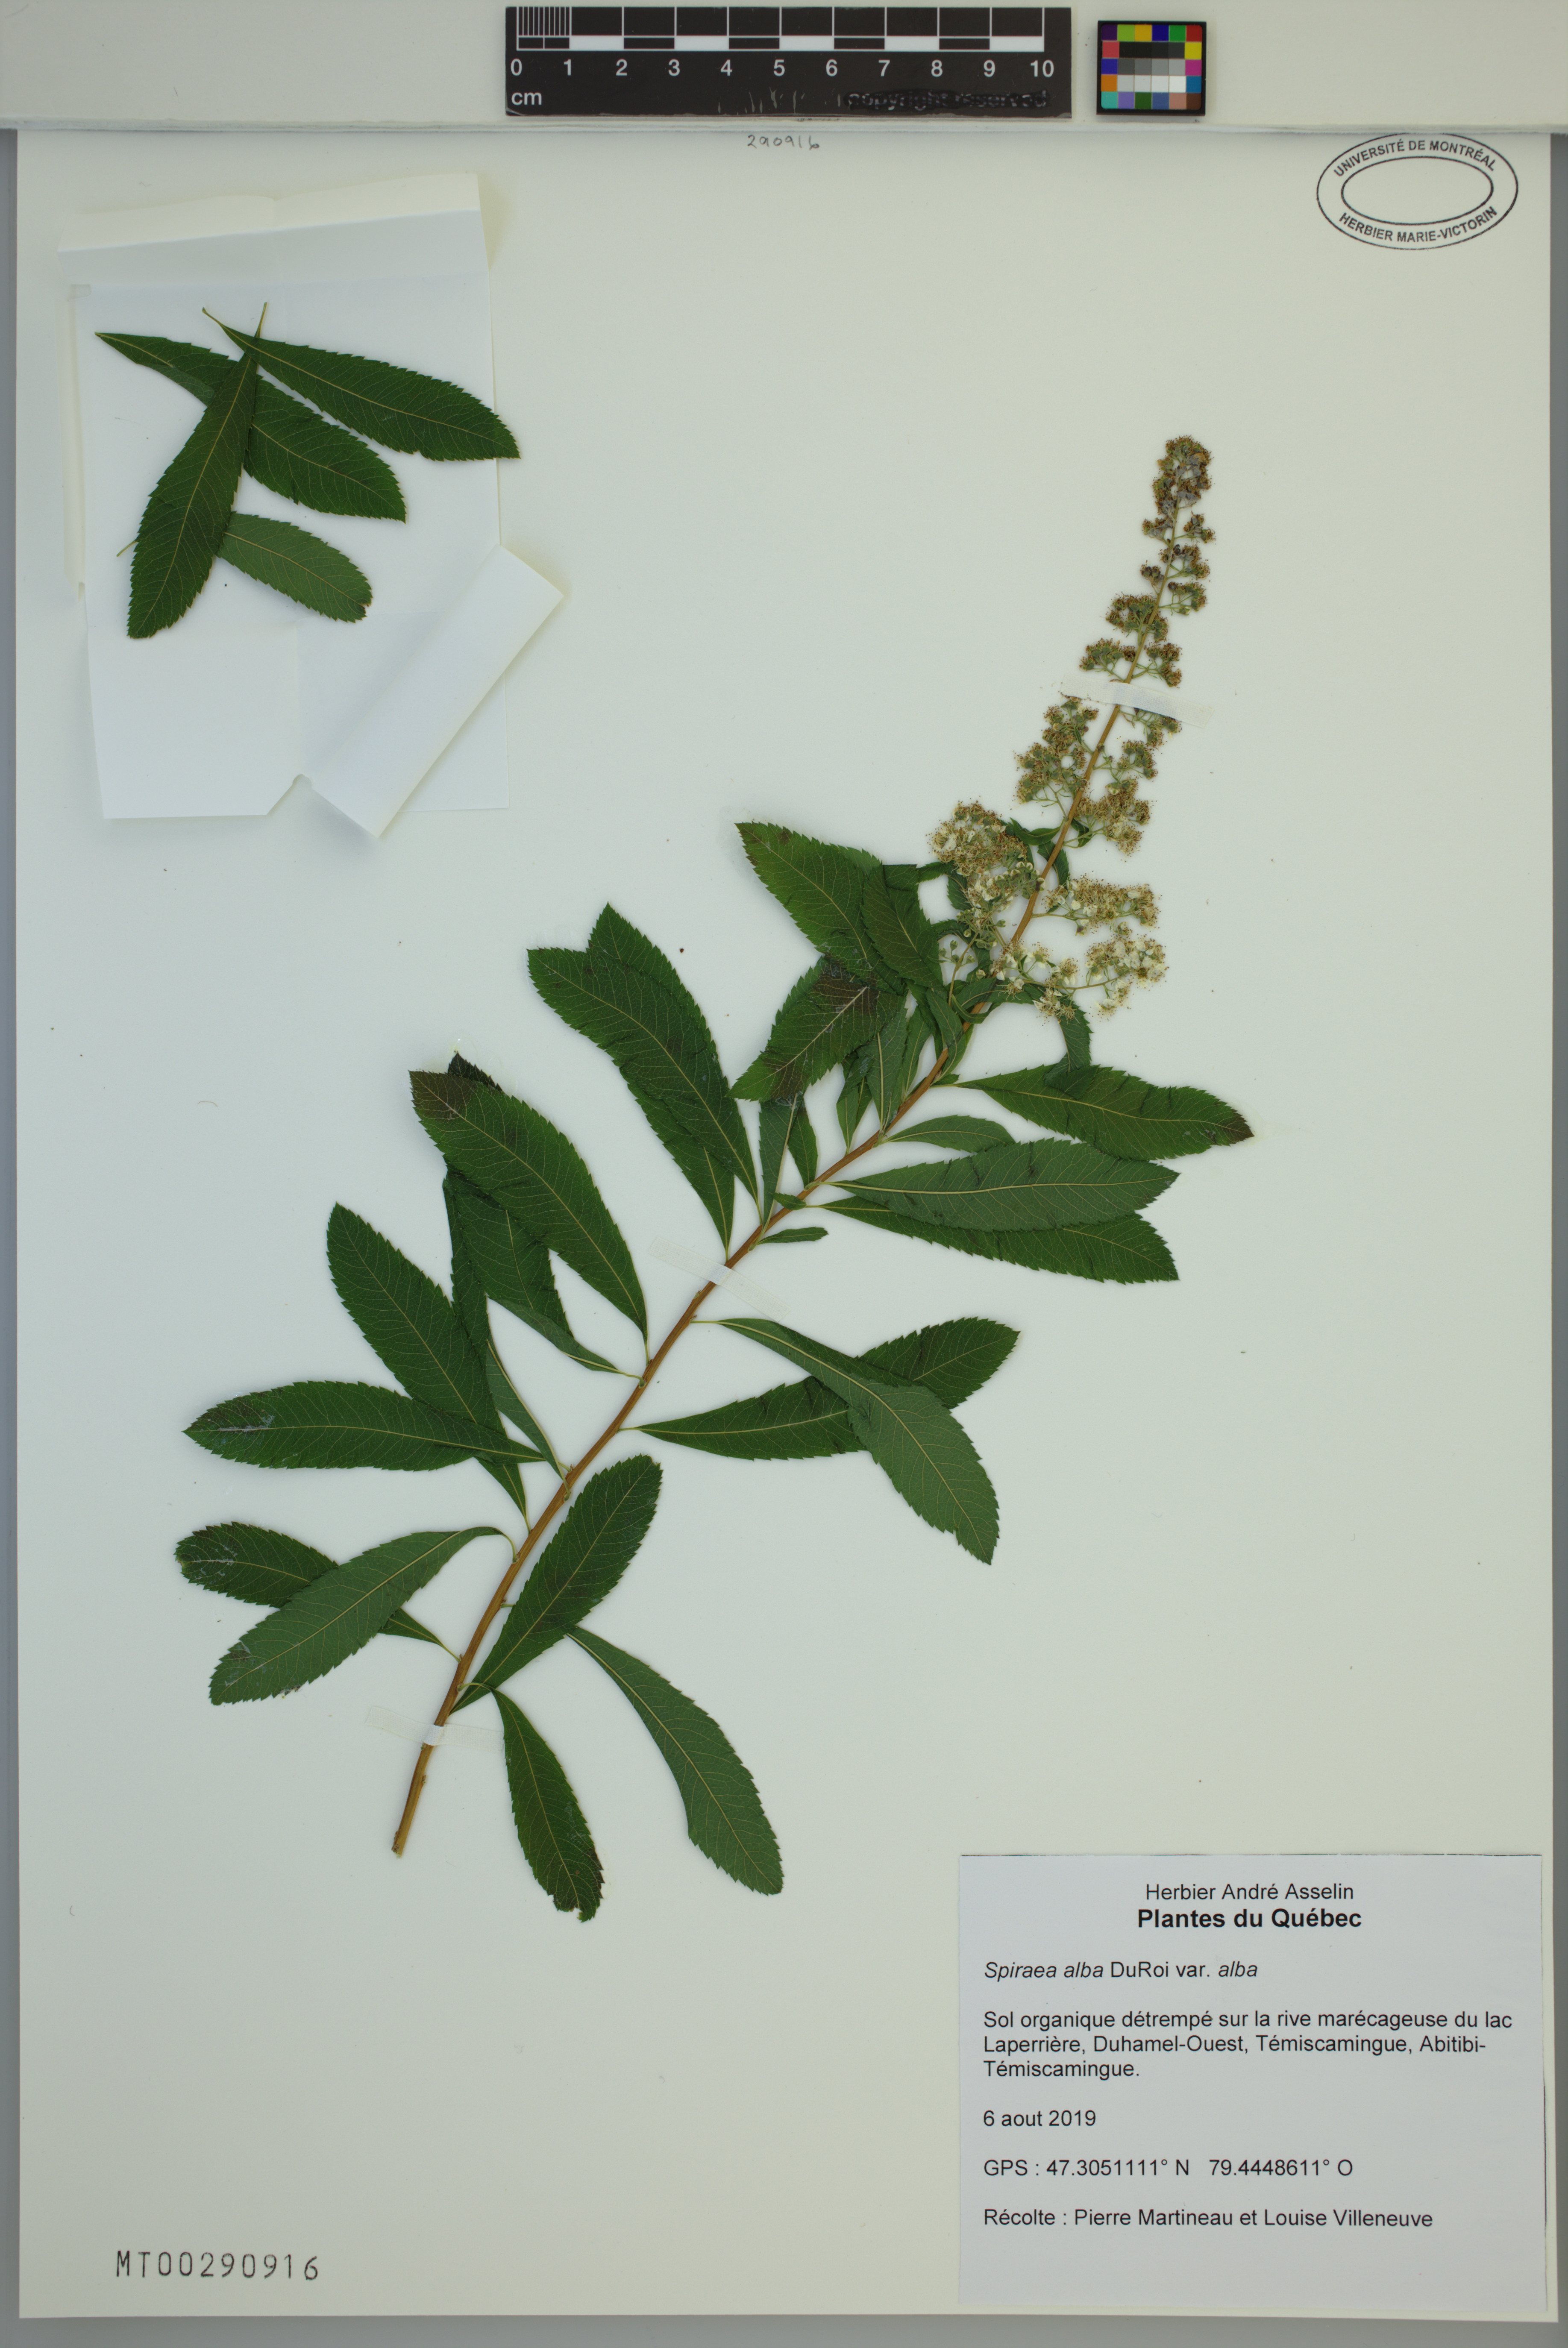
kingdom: Plantae
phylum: Tracheophyta
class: Magnoliopsida
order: Rosales
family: Rosaceae
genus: Spiraea
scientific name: Spiraea alba
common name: Pale bridewort
